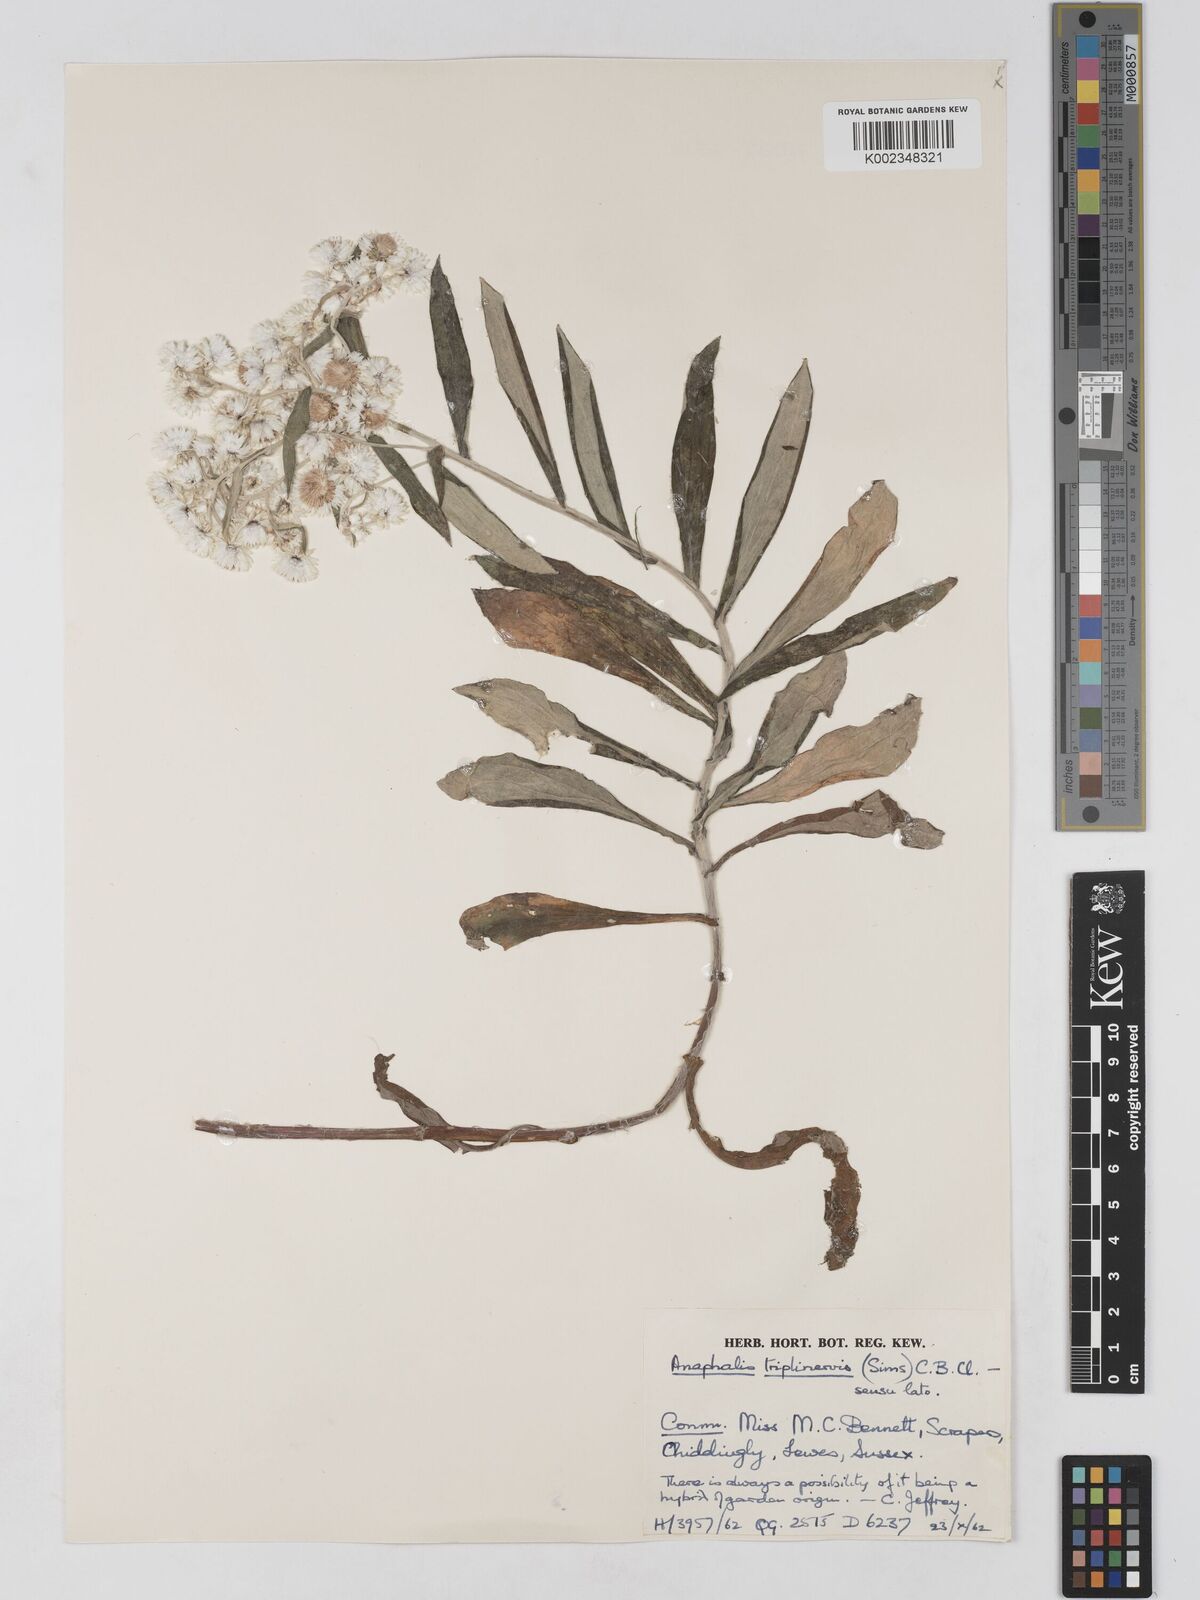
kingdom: Plantae
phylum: Tracheophyta
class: Magnoliopsida
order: Asterales
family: Asteraceae
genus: Anaphalis
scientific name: Anaphalis triplinervis
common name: Pearly everlasting
